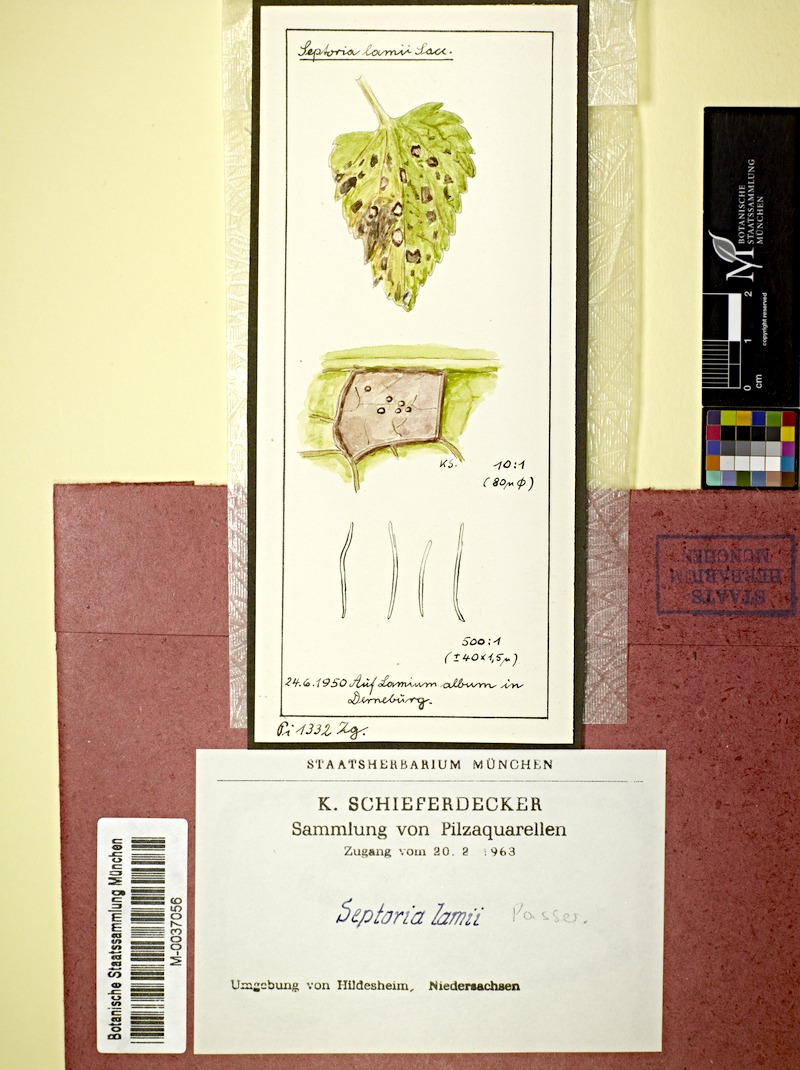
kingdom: Plantae
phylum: Tracheophyta
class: Magnoliopsida
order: Lamiales
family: Lamiaceae
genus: Lamium
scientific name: Lamium album
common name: White dead-nettle
